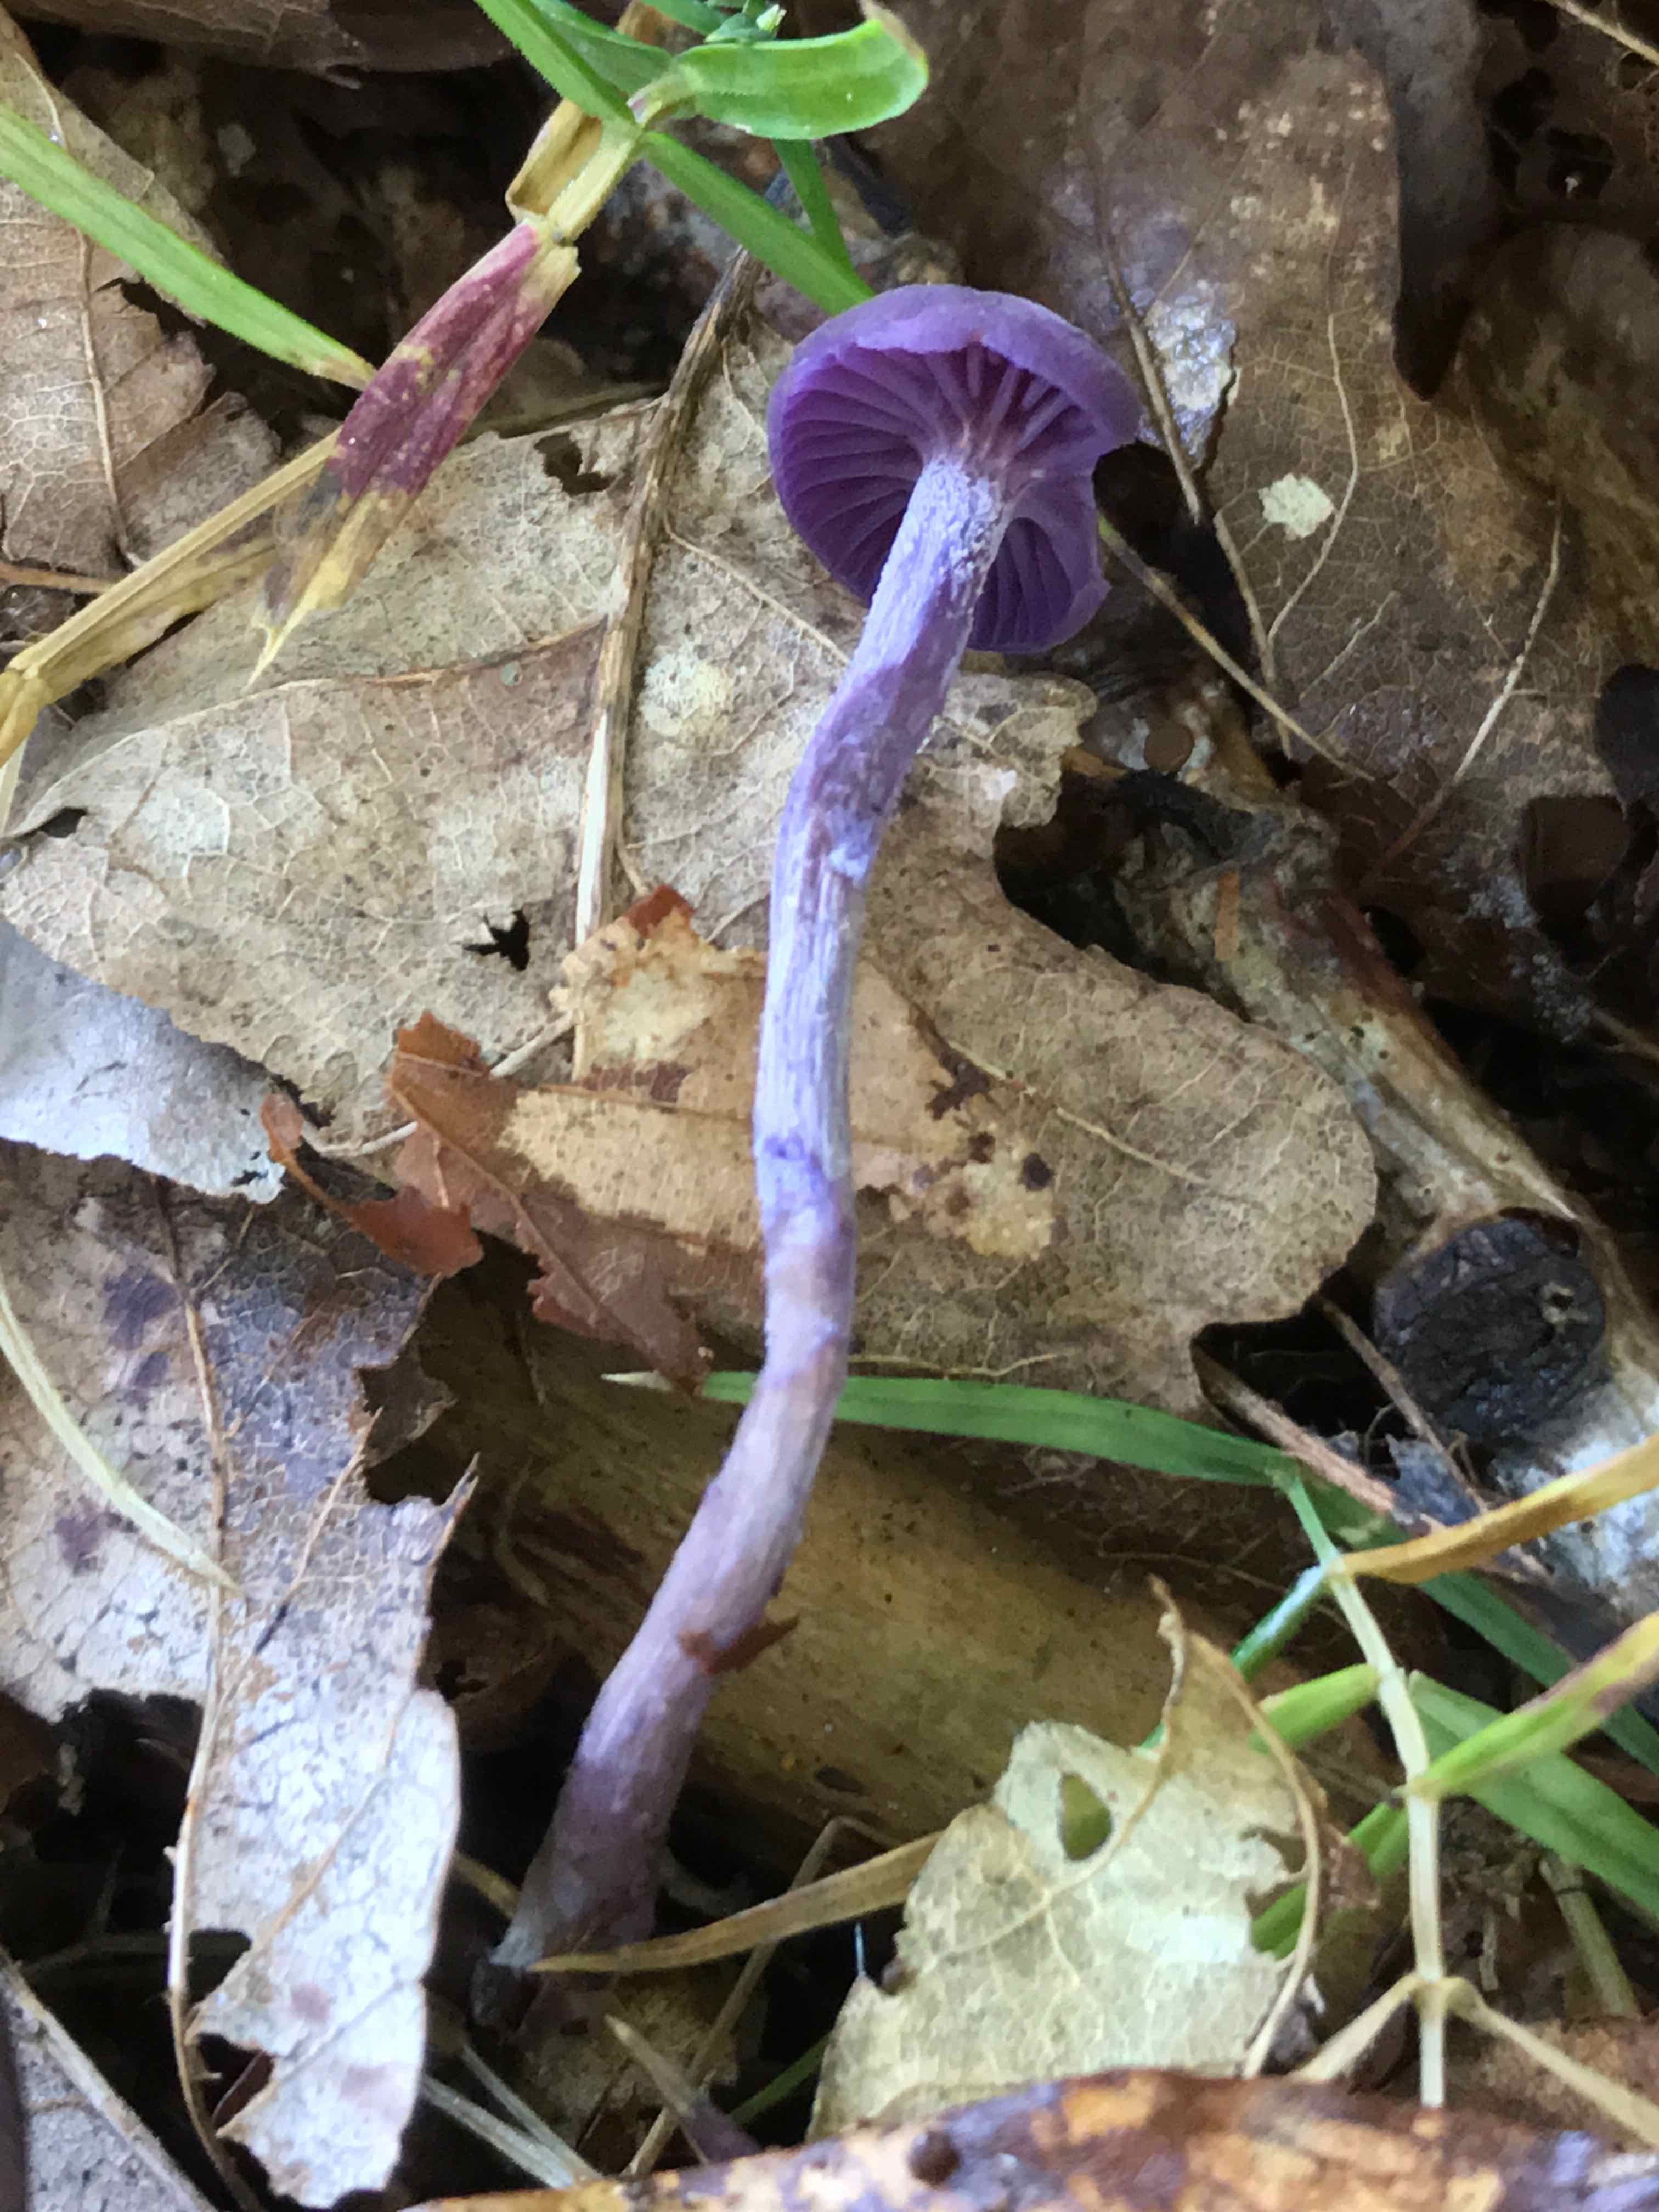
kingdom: Fungi
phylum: Basidiomycota
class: Agaricomycetes
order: Agaricales
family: Hydnangiaceae
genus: Laccaria
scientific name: Laccaria amethystina
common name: violet ametysthat
